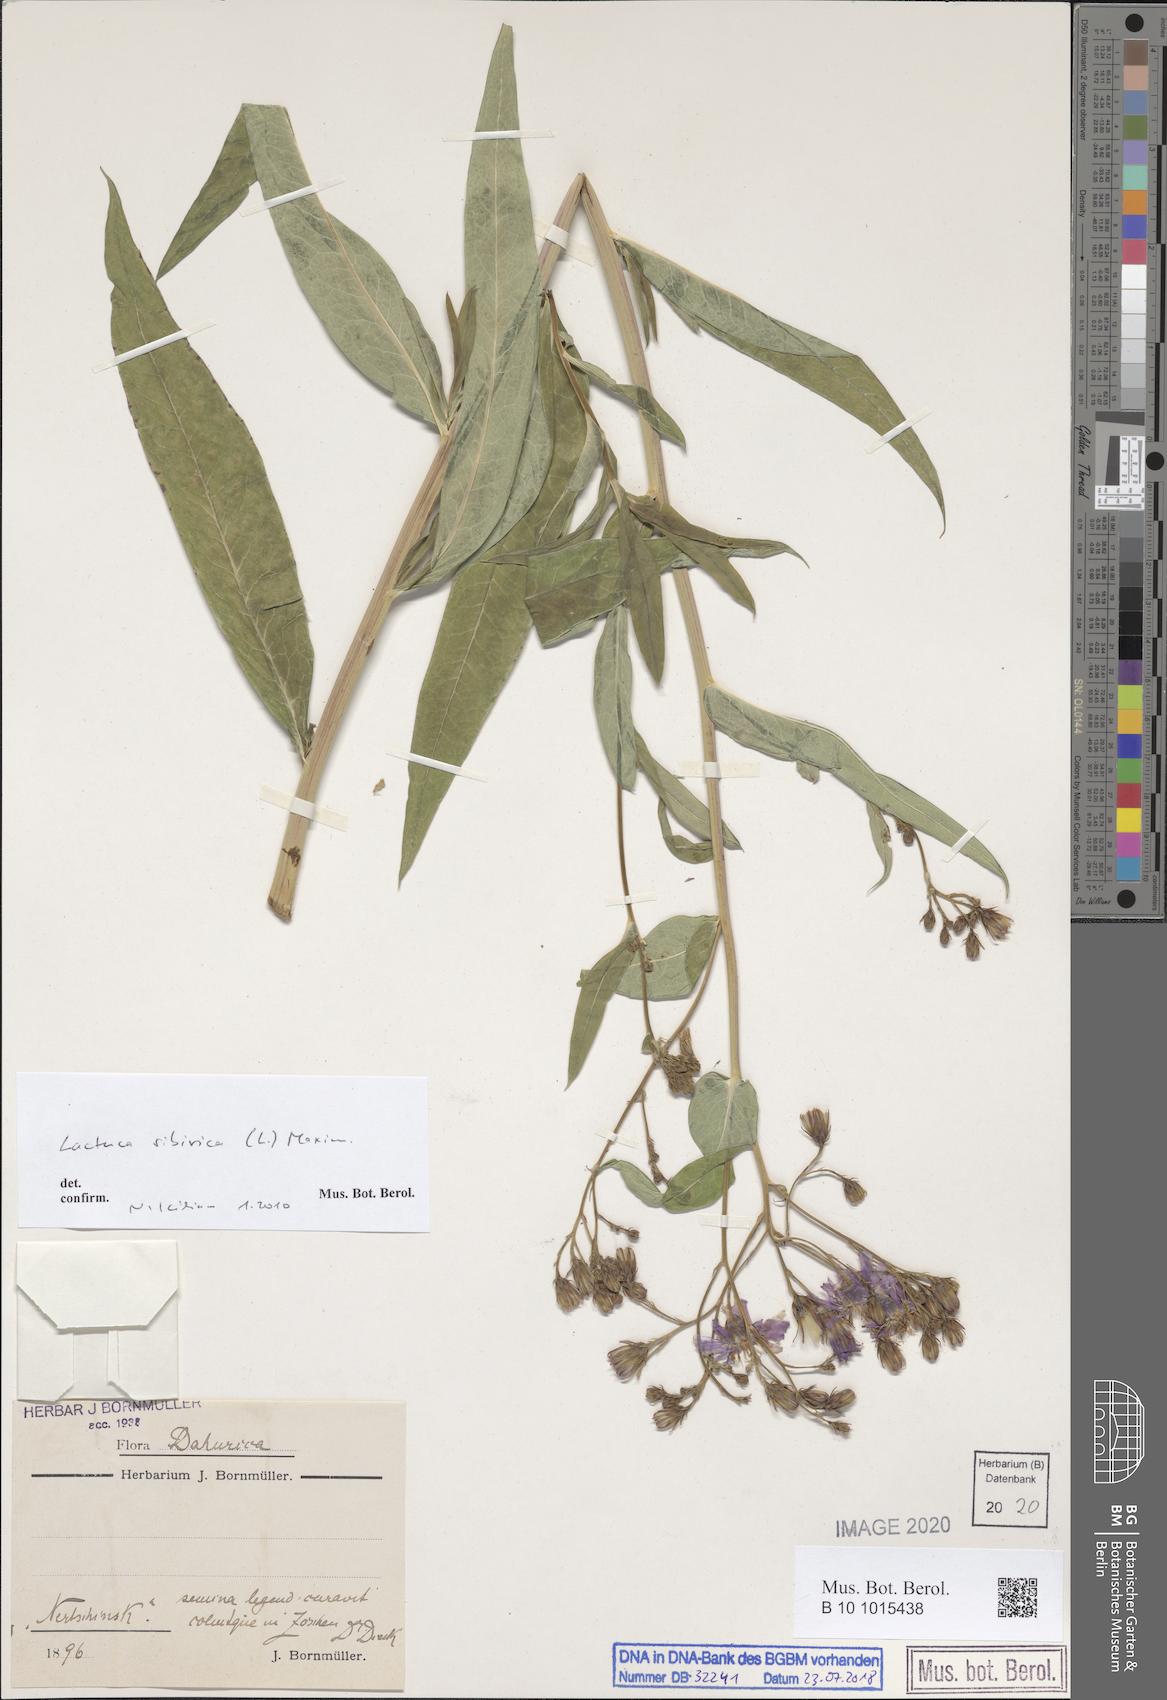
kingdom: Plantae
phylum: Tracheophyta
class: Magnoliopsida
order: Asterales
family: Asteraceae
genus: Lactuca
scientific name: Lactuca sibirica
